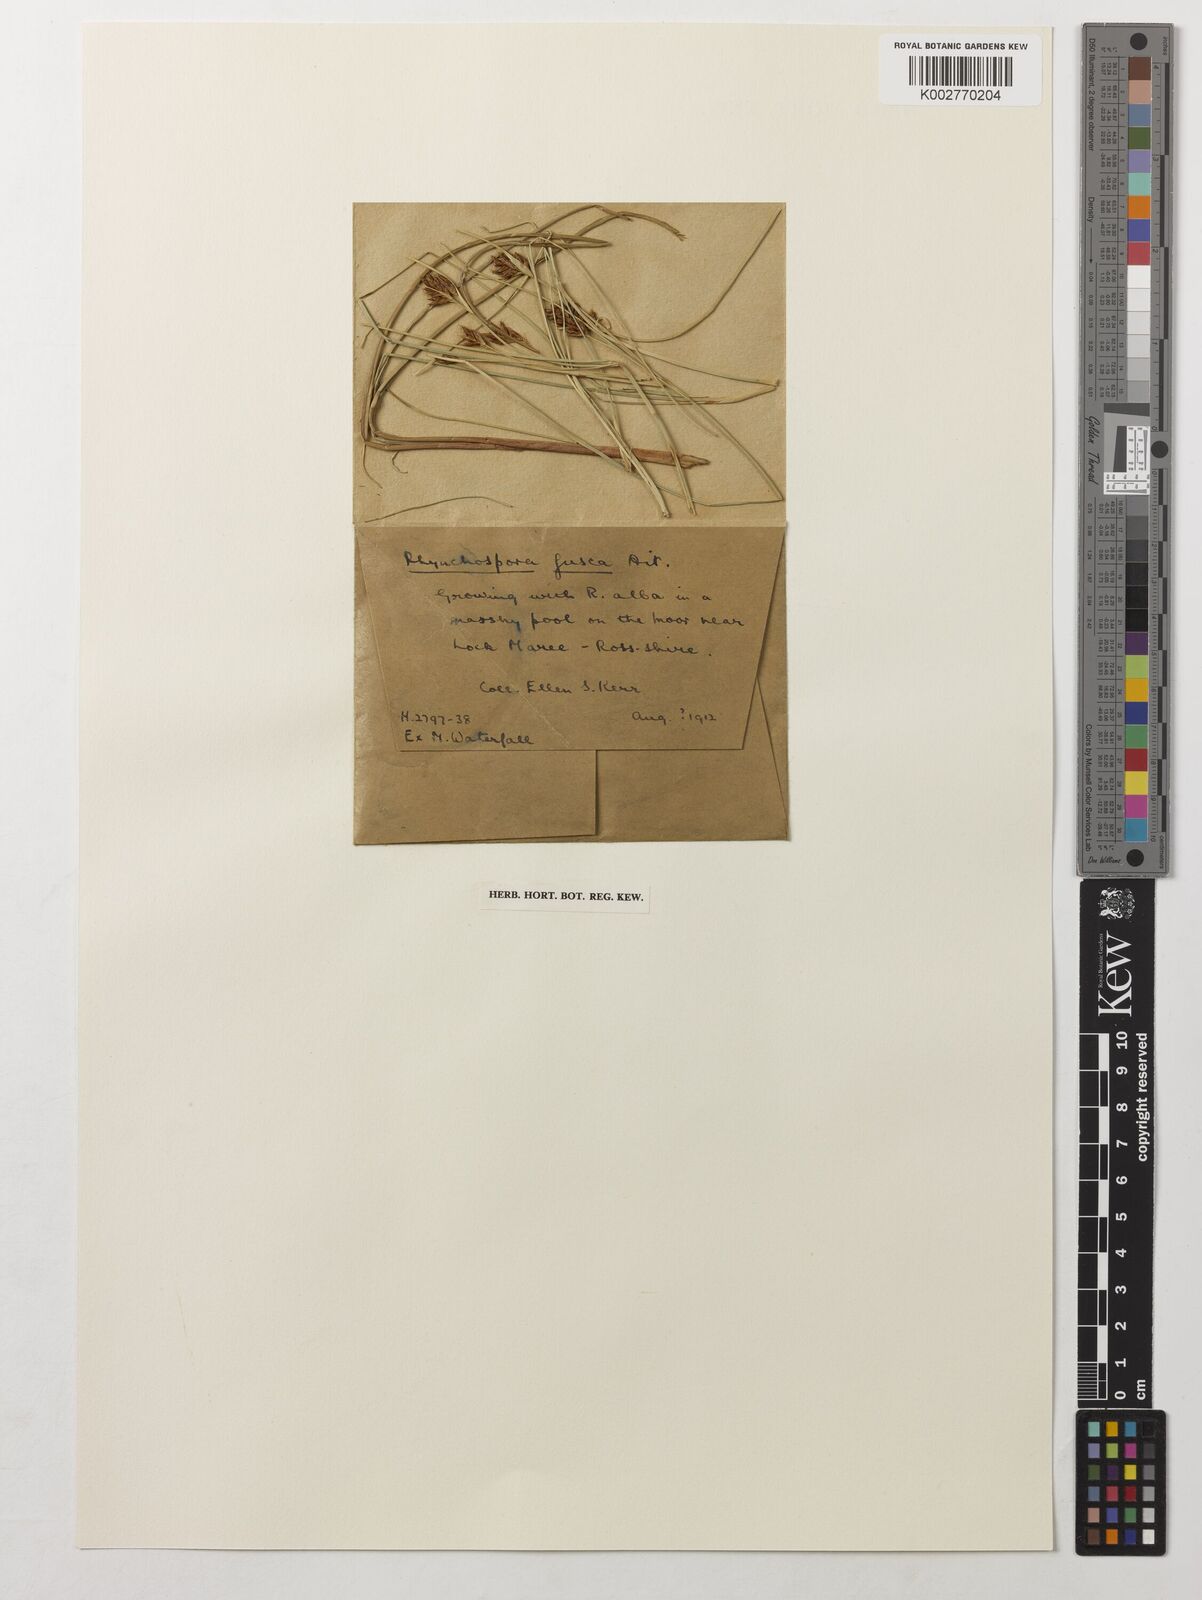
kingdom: Plantae
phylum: Tracheophyta
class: Liliopsida
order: Poales
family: Cyperaceae
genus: Rhynchospora
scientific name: Rhynchospora fusca
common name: Brown beak-sedge
